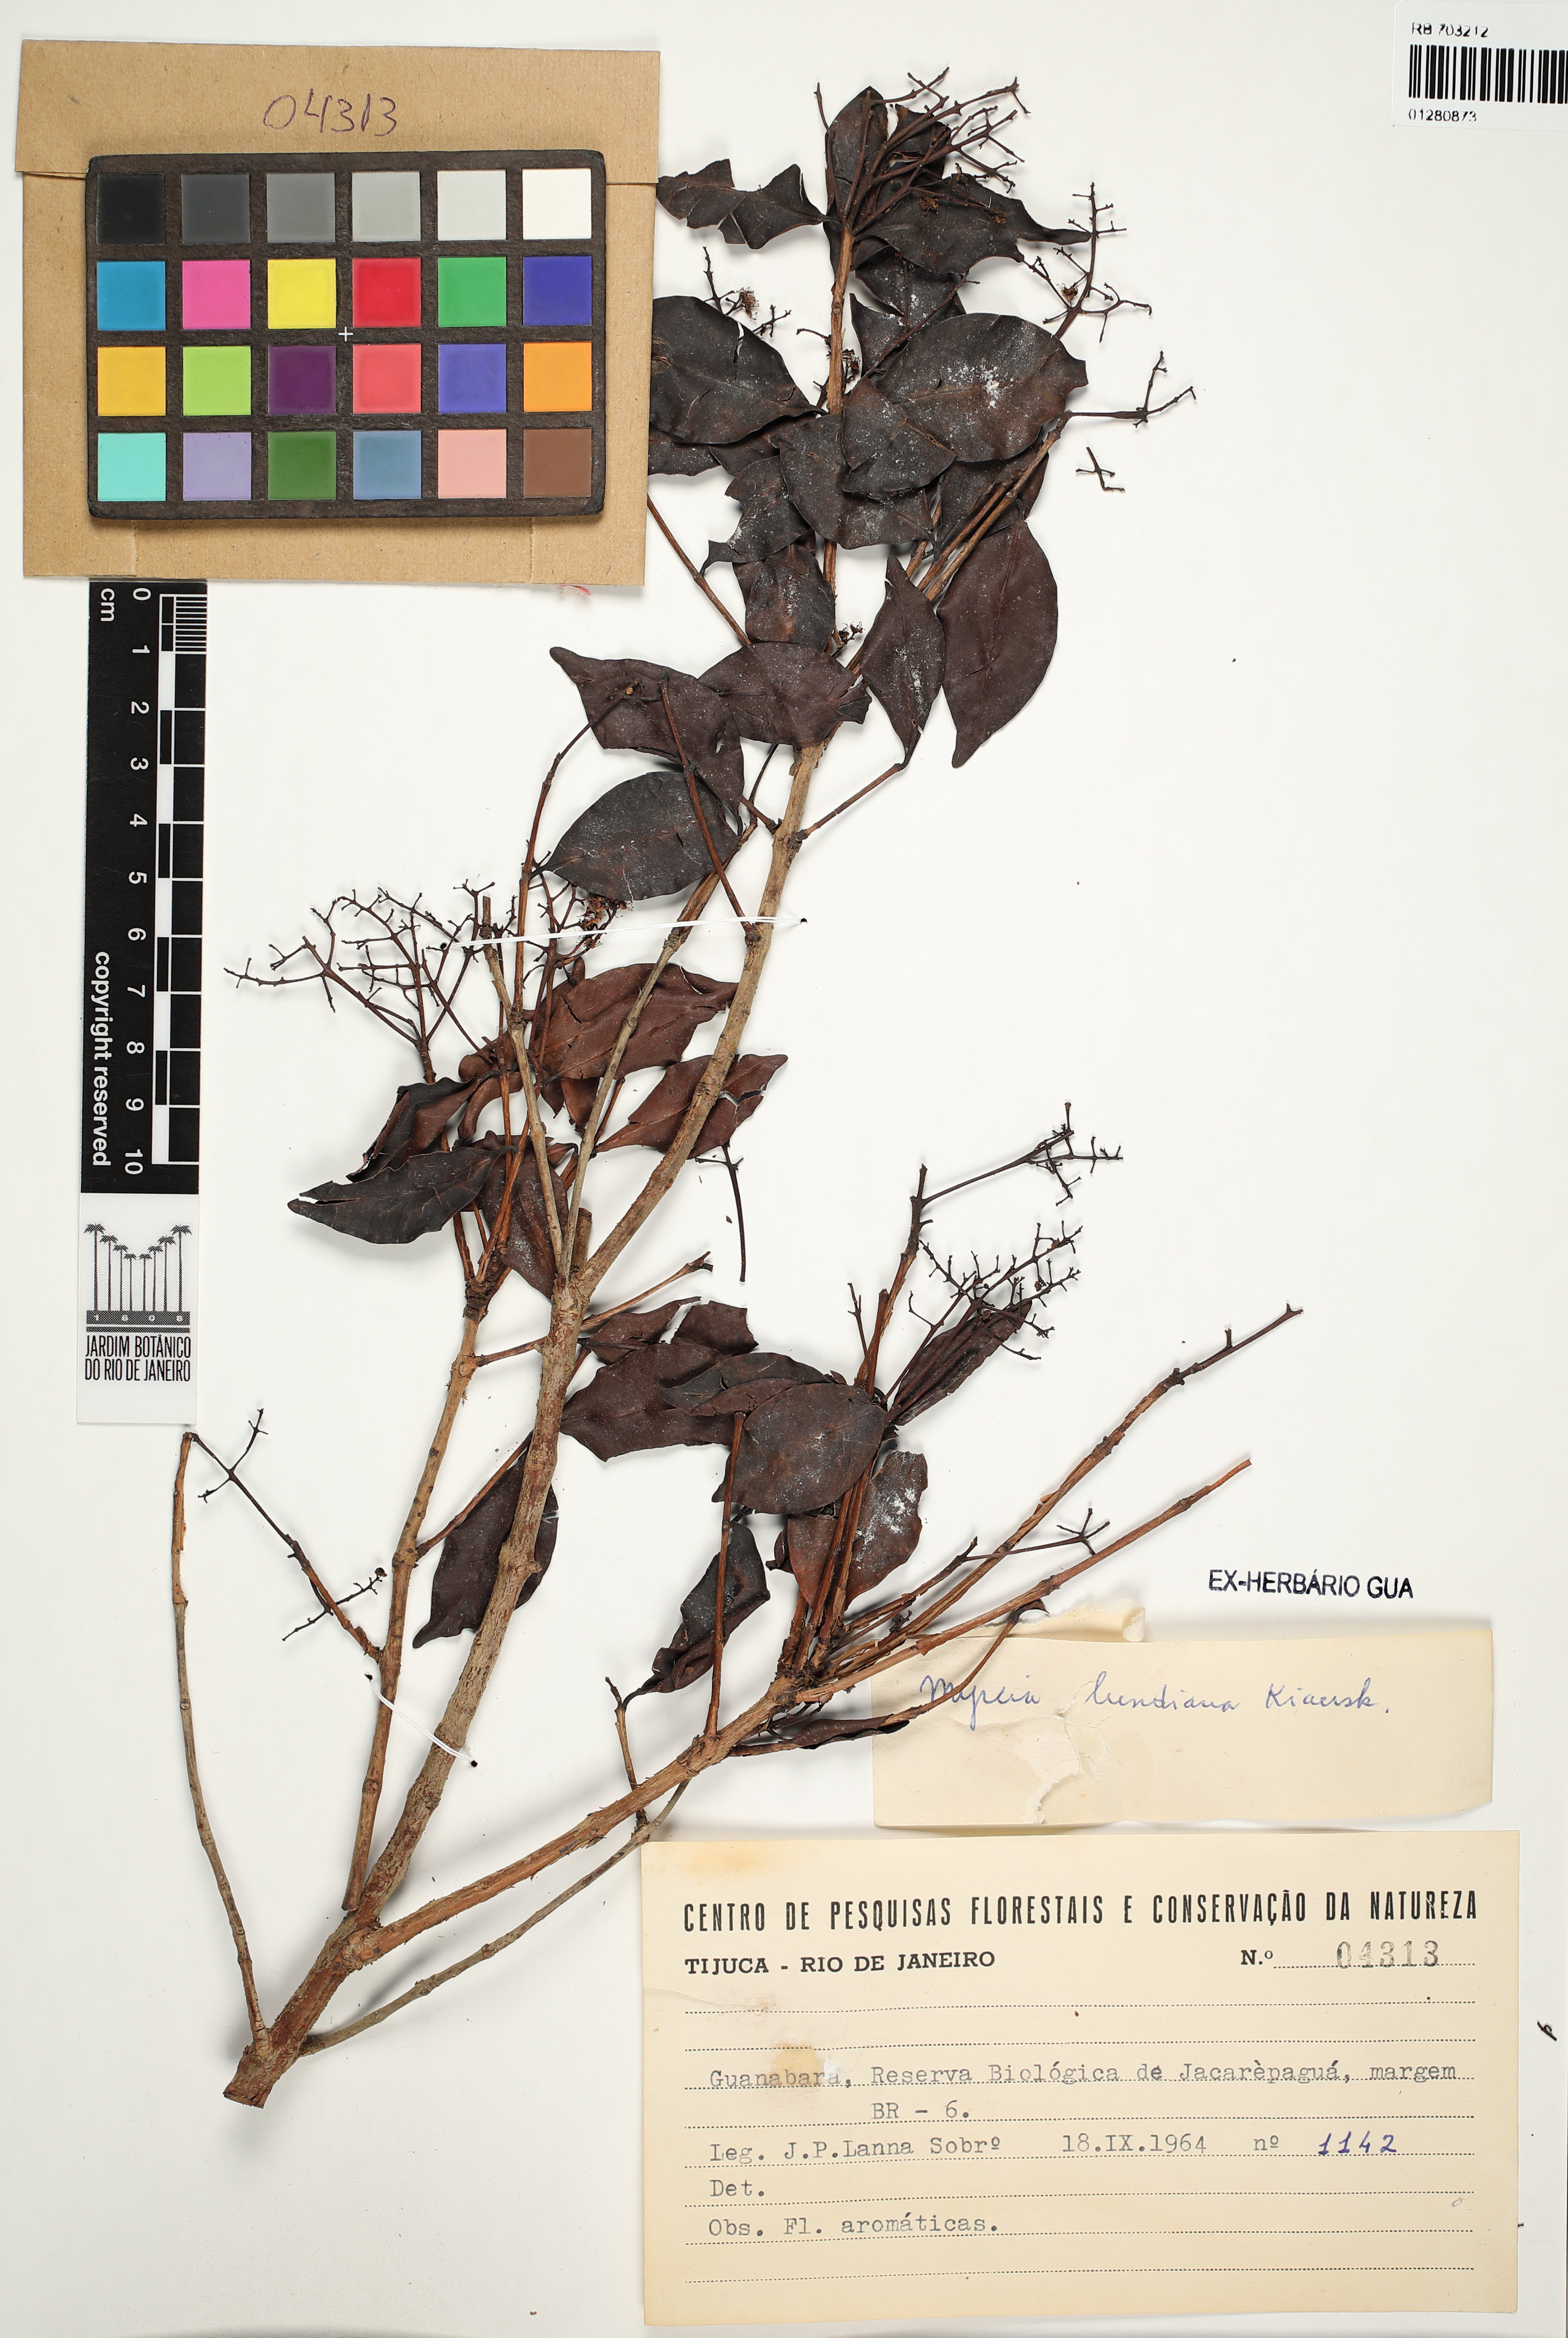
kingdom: Plantae
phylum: Tracheophyta
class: Magnoliopsida
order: Myrtales
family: Myrtaceae
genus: Myrcia
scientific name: Myrcia lundiana
